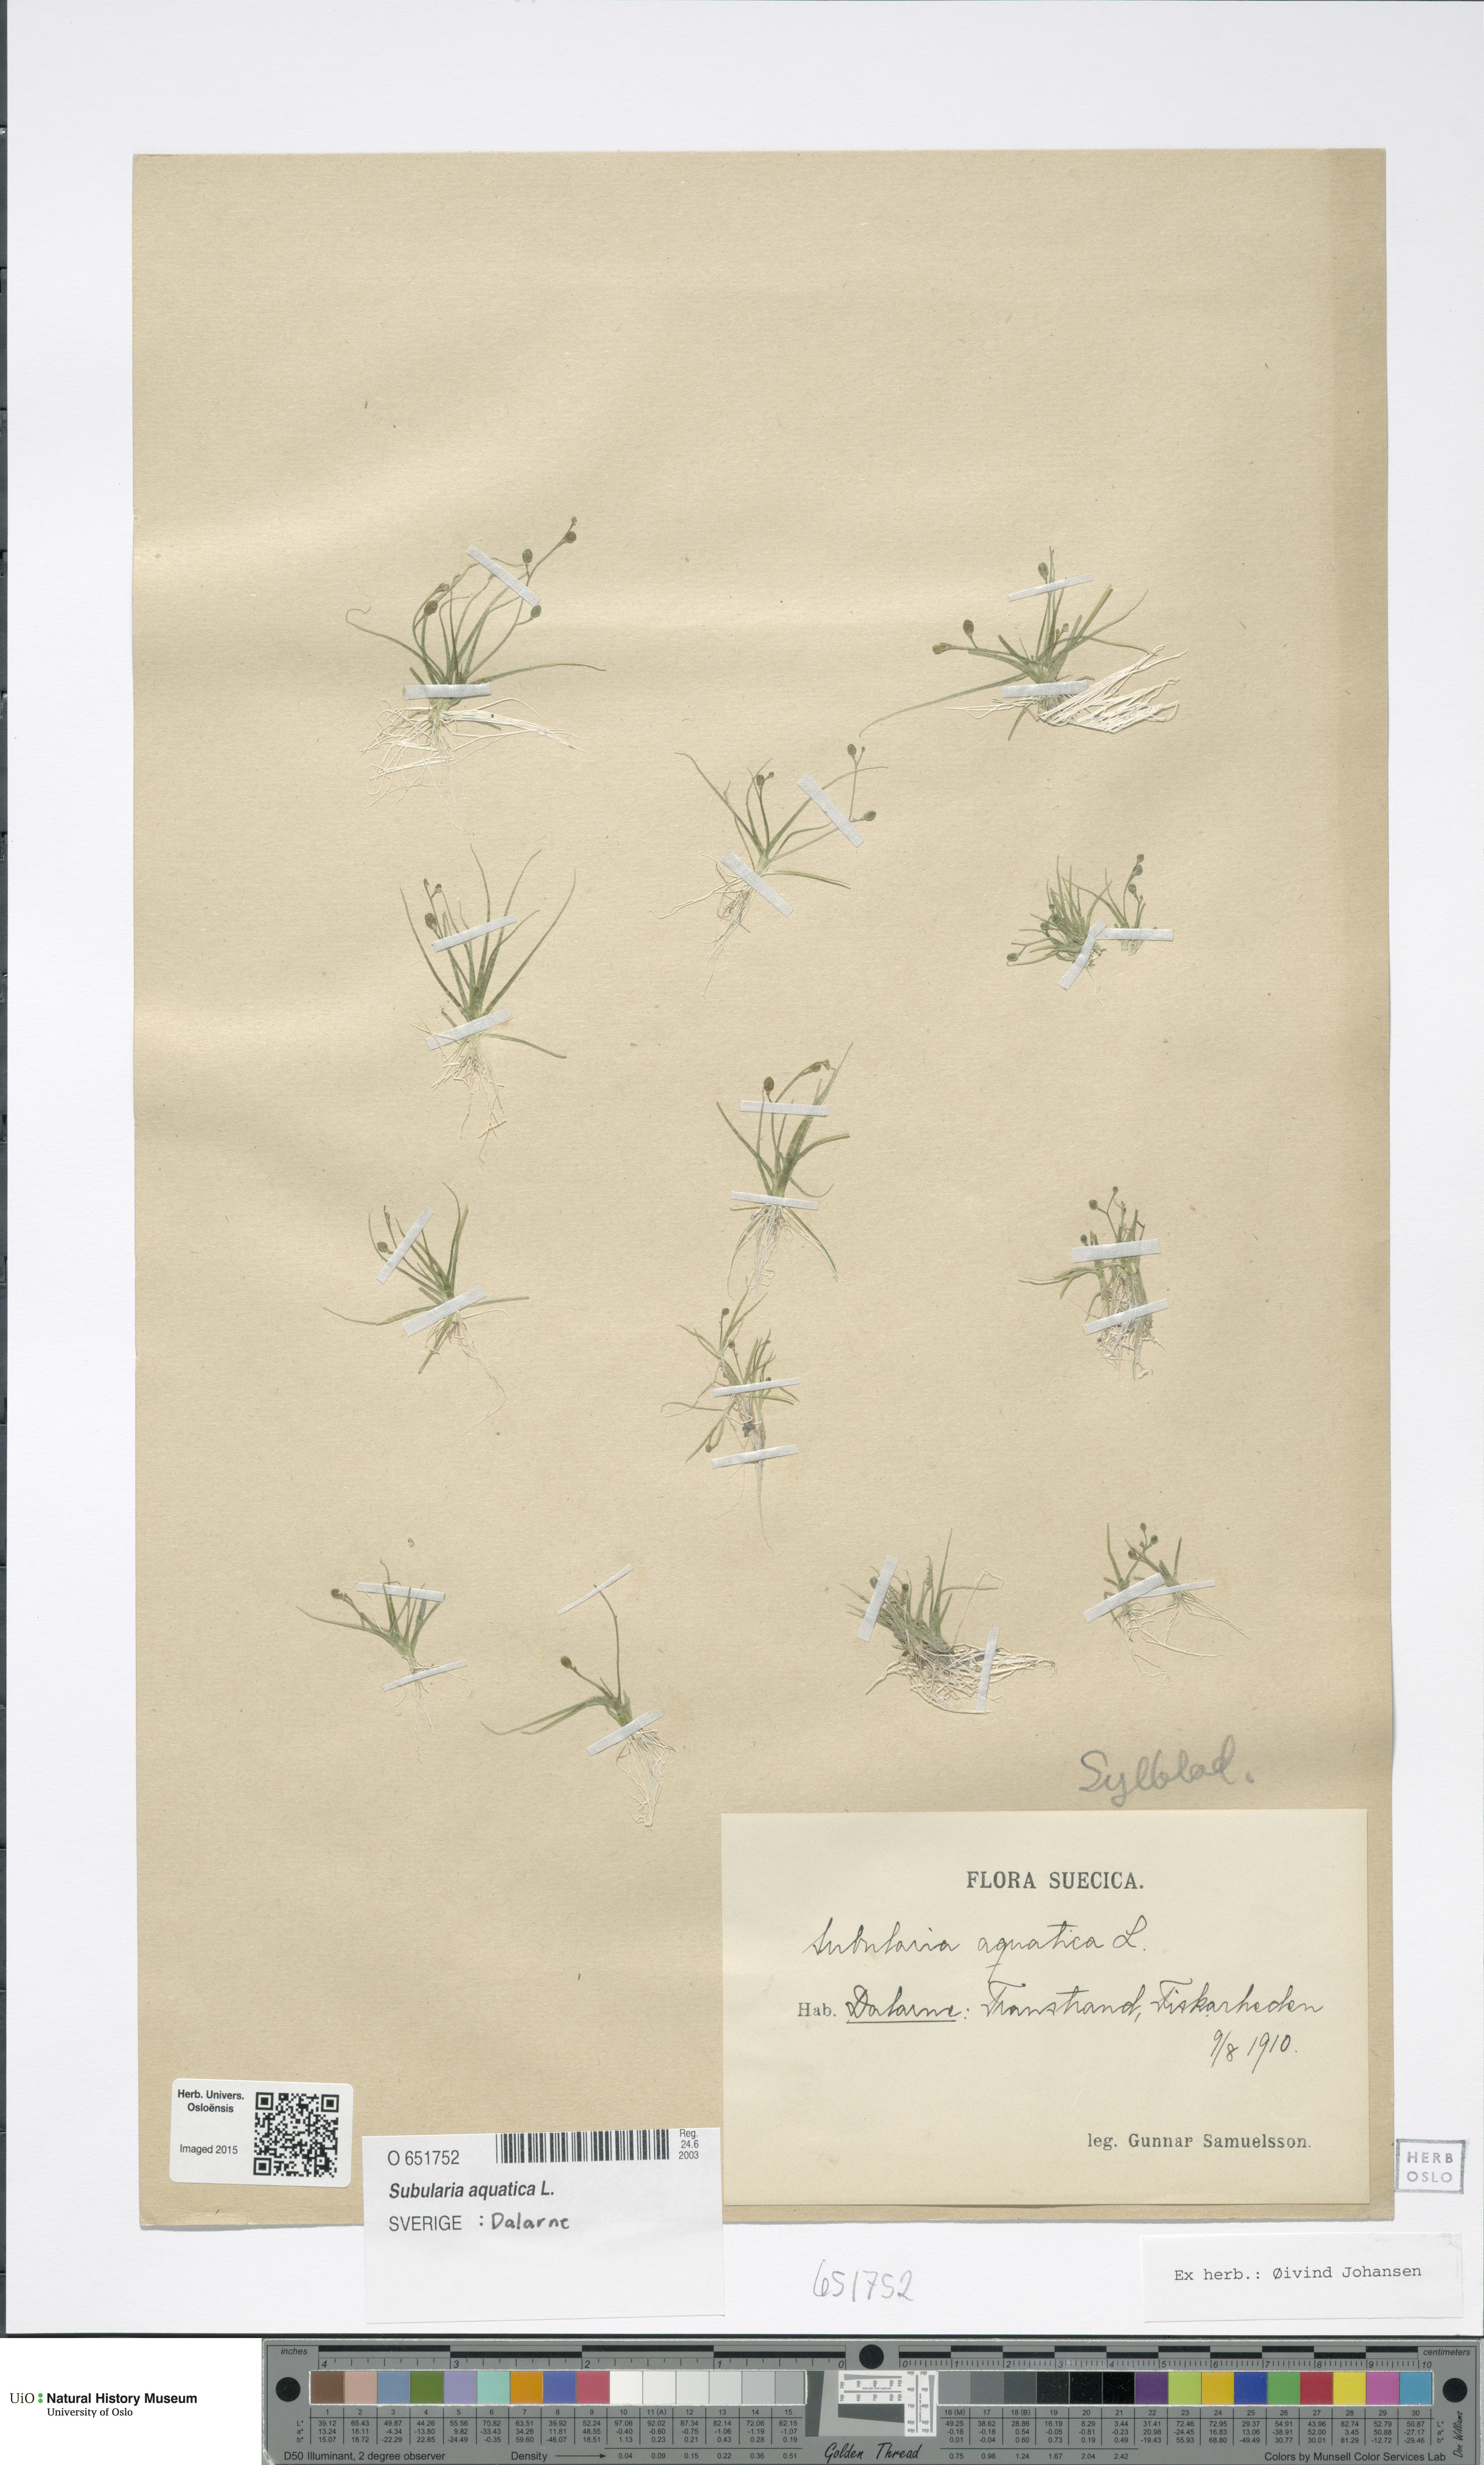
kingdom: Plantae
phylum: Tracheophyta
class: Magnoliopsida
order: Brassicales
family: Brassicaceae
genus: Subularia
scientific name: Subularia aquatica
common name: Awlwort
